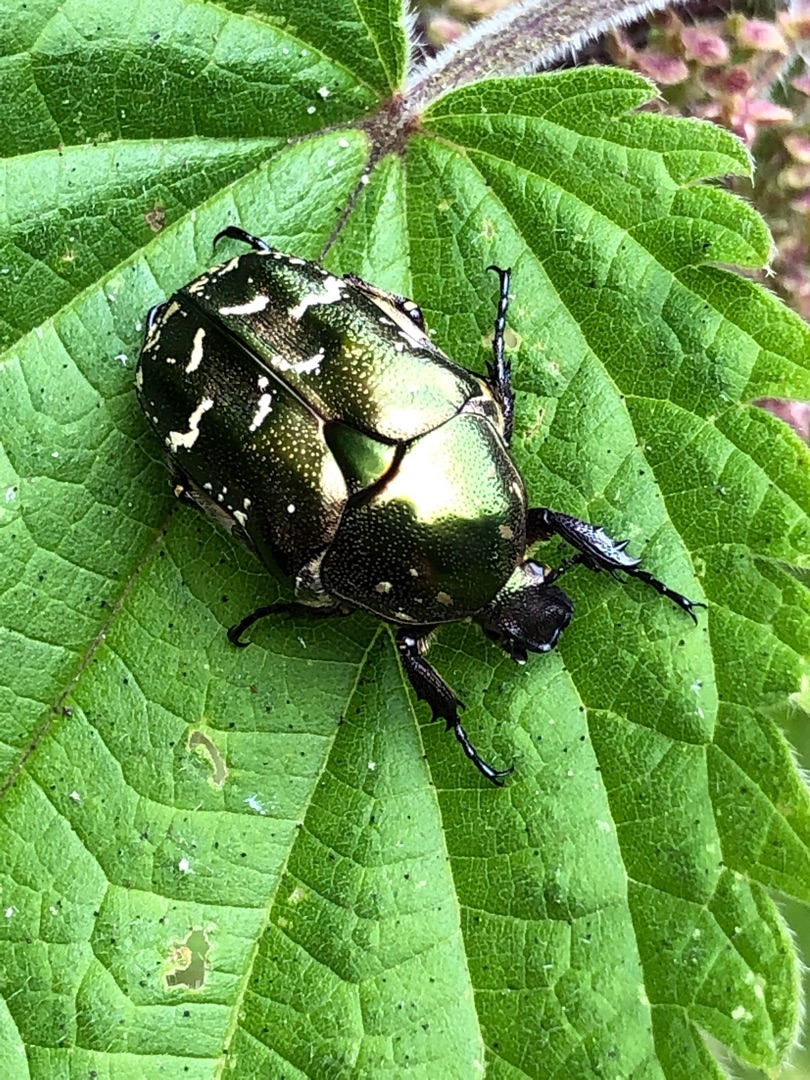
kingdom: Animalia
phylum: Arthropoda
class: Insecta
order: Coleoptera
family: Scarabaeidae
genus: Protaetia
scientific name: Protaetia cuprea
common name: Kobberguldbasse
